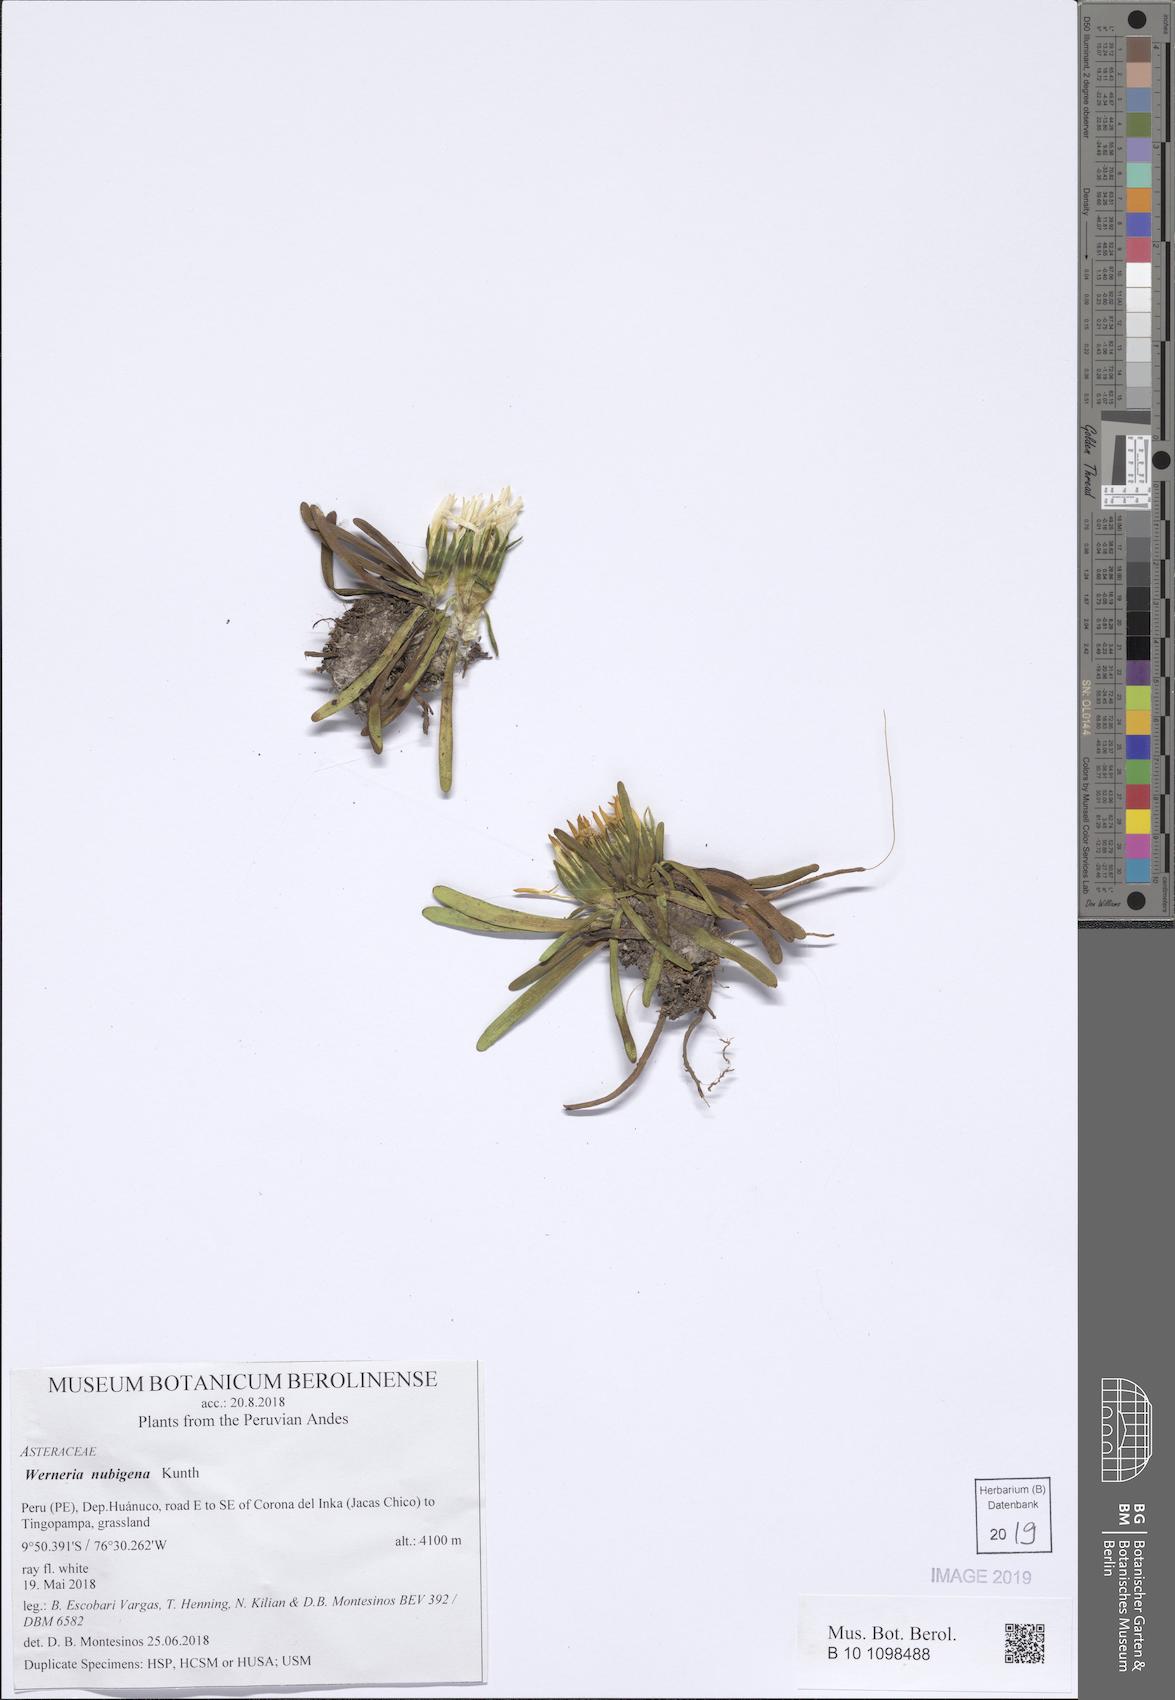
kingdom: Plantae
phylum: Tracheophyta
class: Magnoliopsida
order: Asterales
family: Asteraceae
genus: Rockhausenia
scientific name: Rockhausenia nubigena
